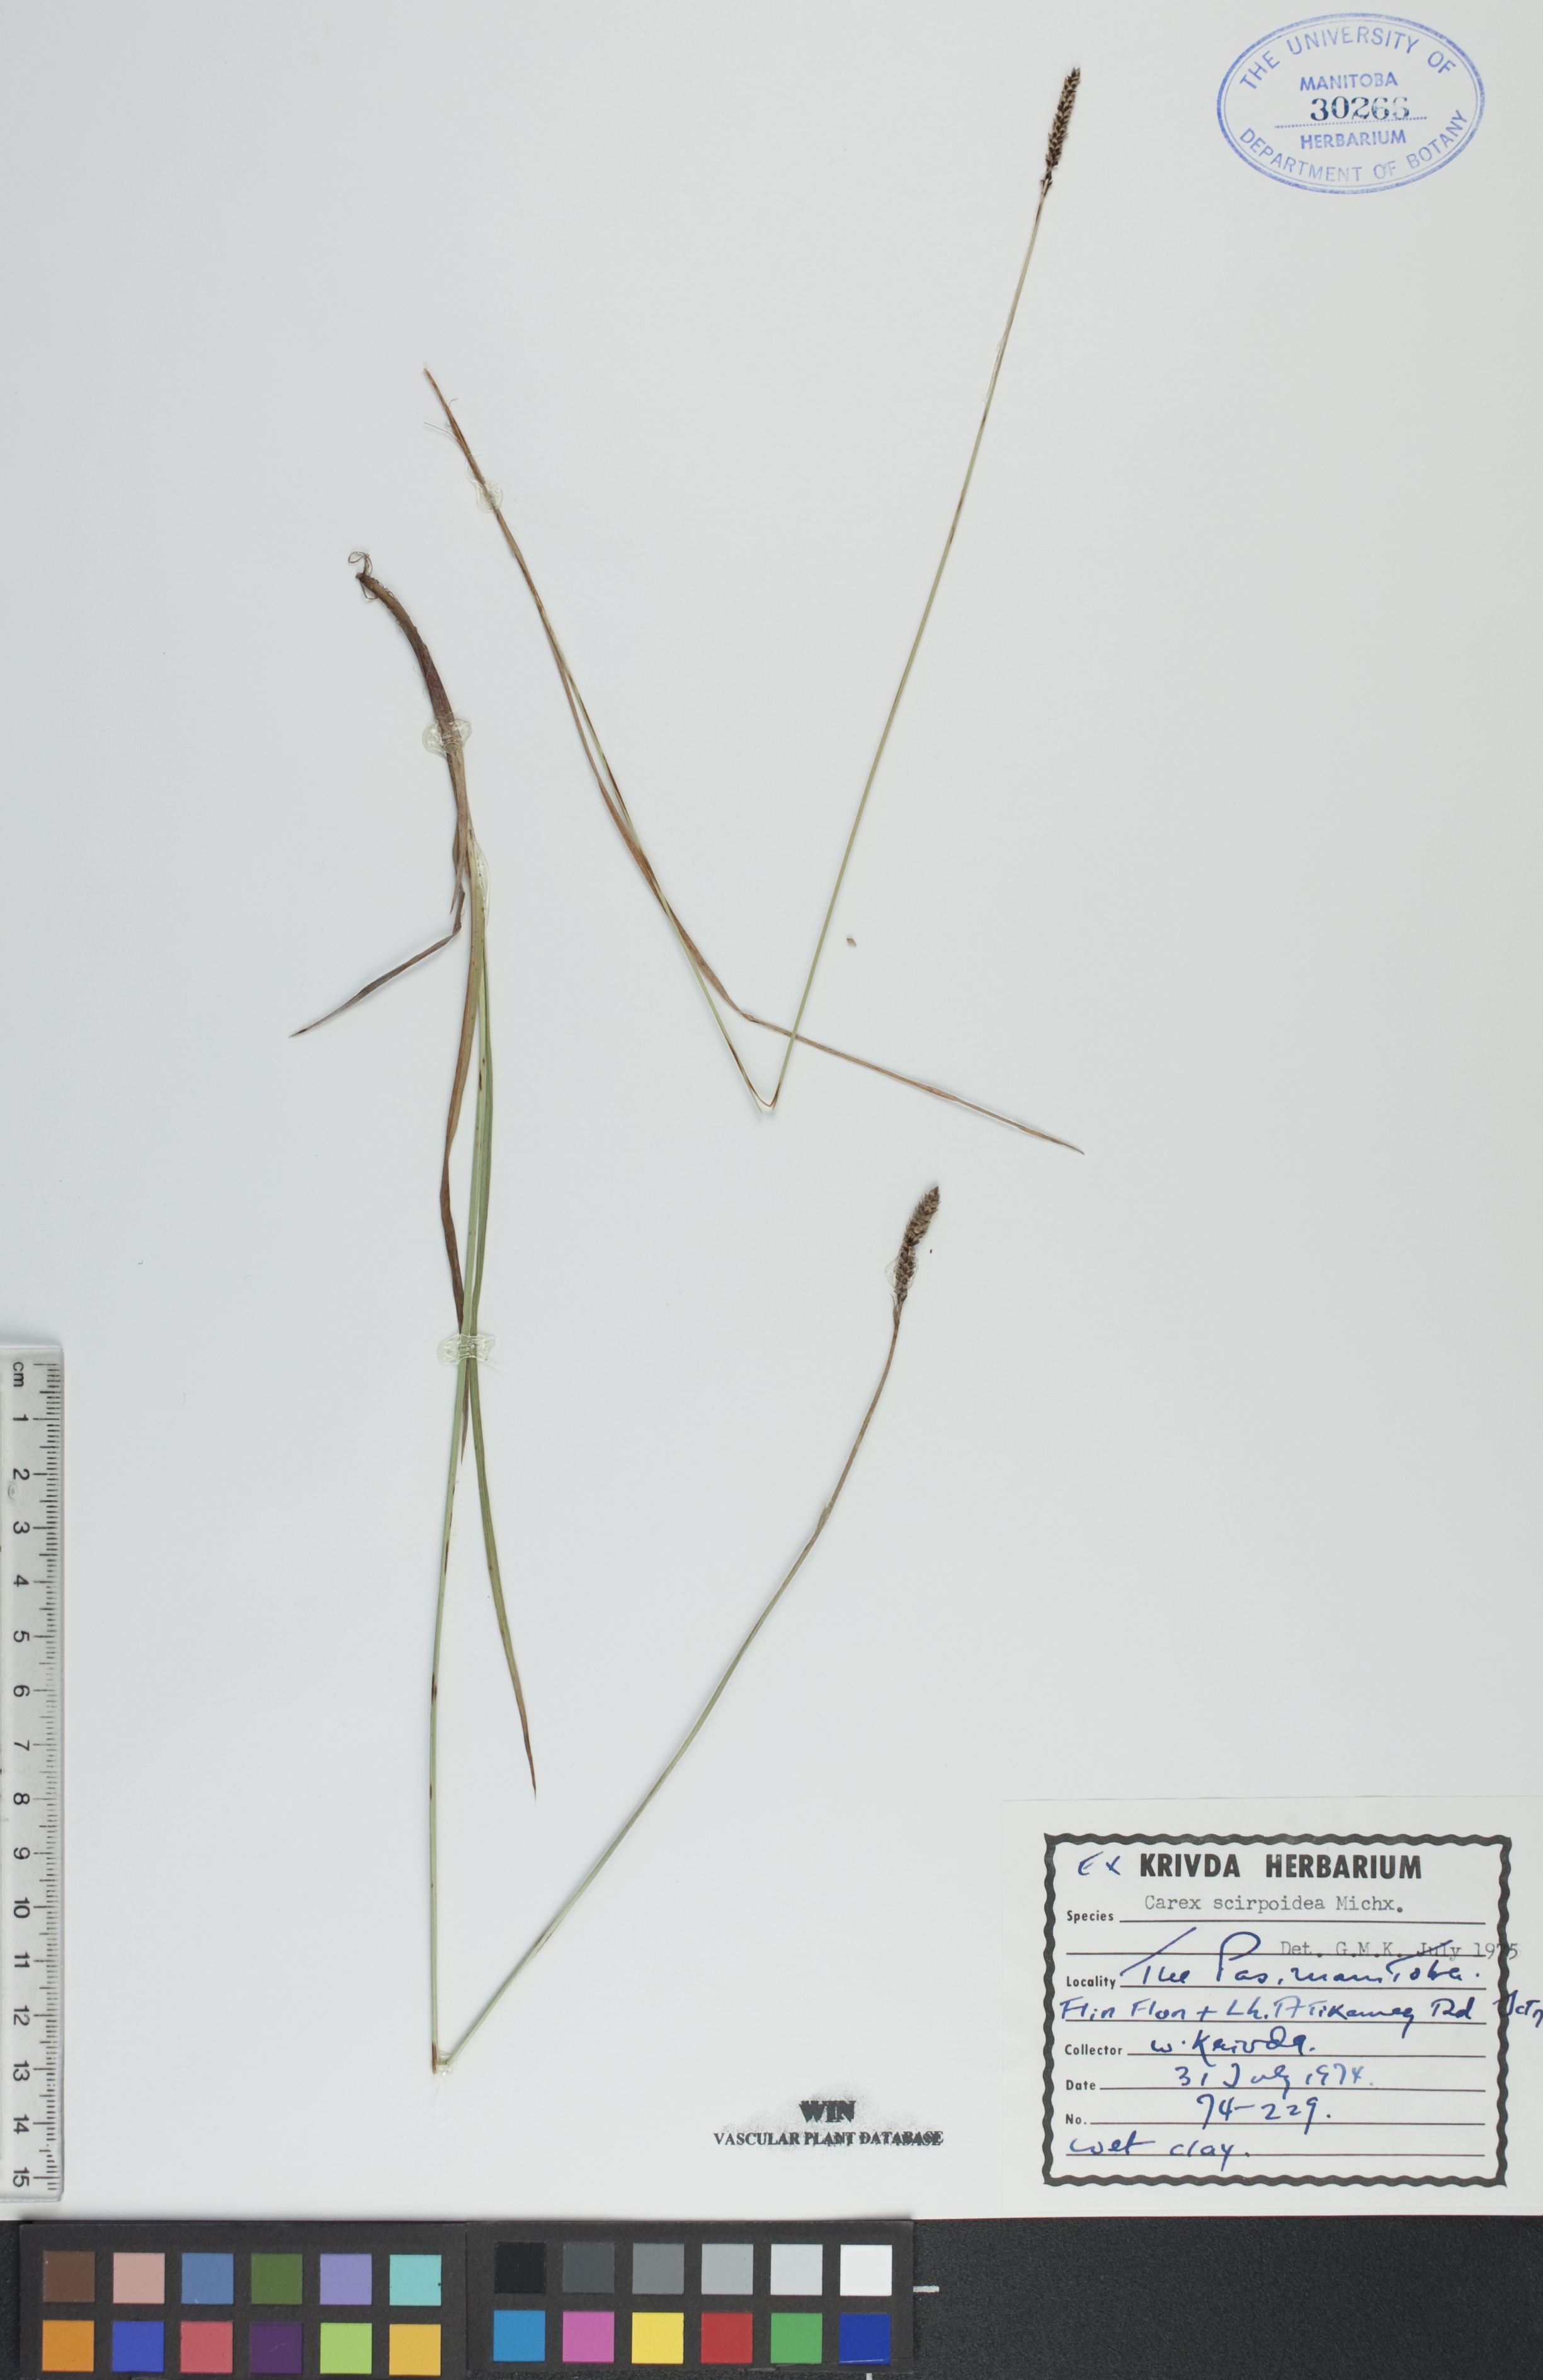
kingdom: Plantae
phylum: Tracheophyta
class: Liliopsida
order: Poales
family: Cyperaceae
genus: Carex
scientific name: Carex scirpoidea
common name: Canada single-spike sedge
